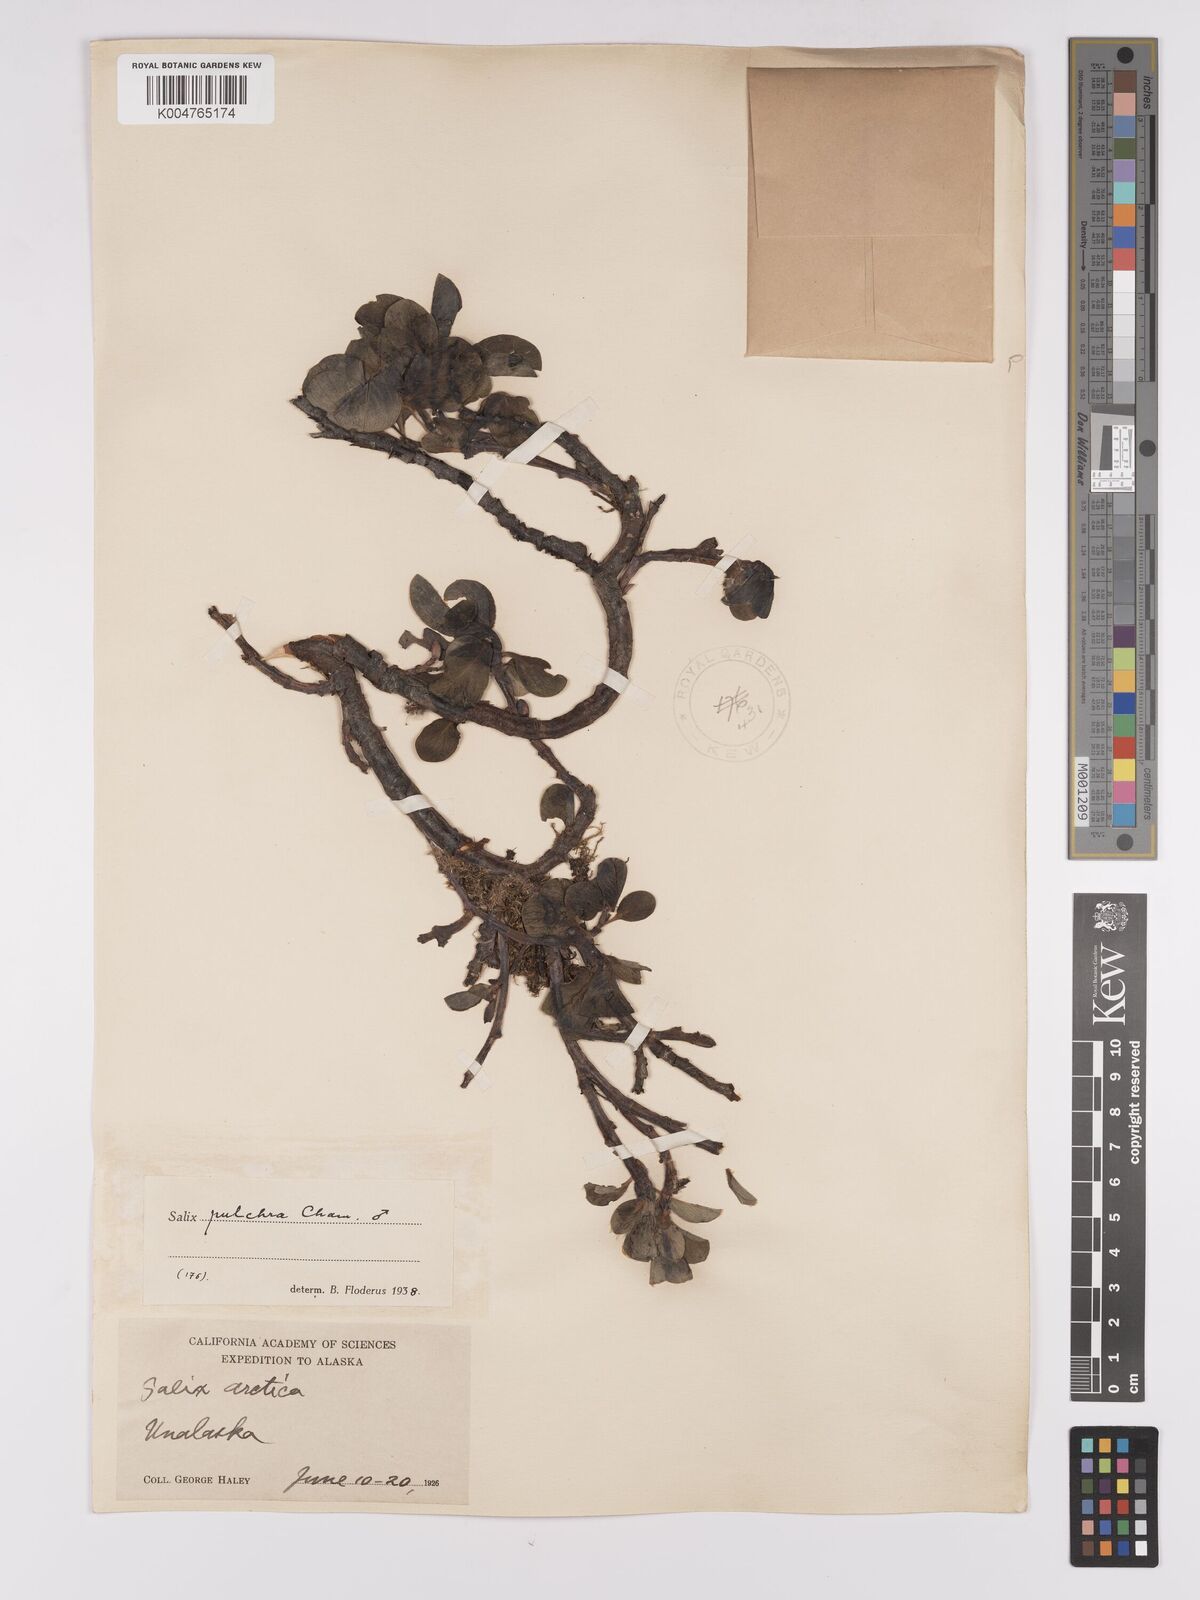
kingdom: Plantae
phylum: Tracheophyta
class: Magnoliopsida
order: Malpighiales
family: Salicaceae
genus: Salix
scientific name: Salix
